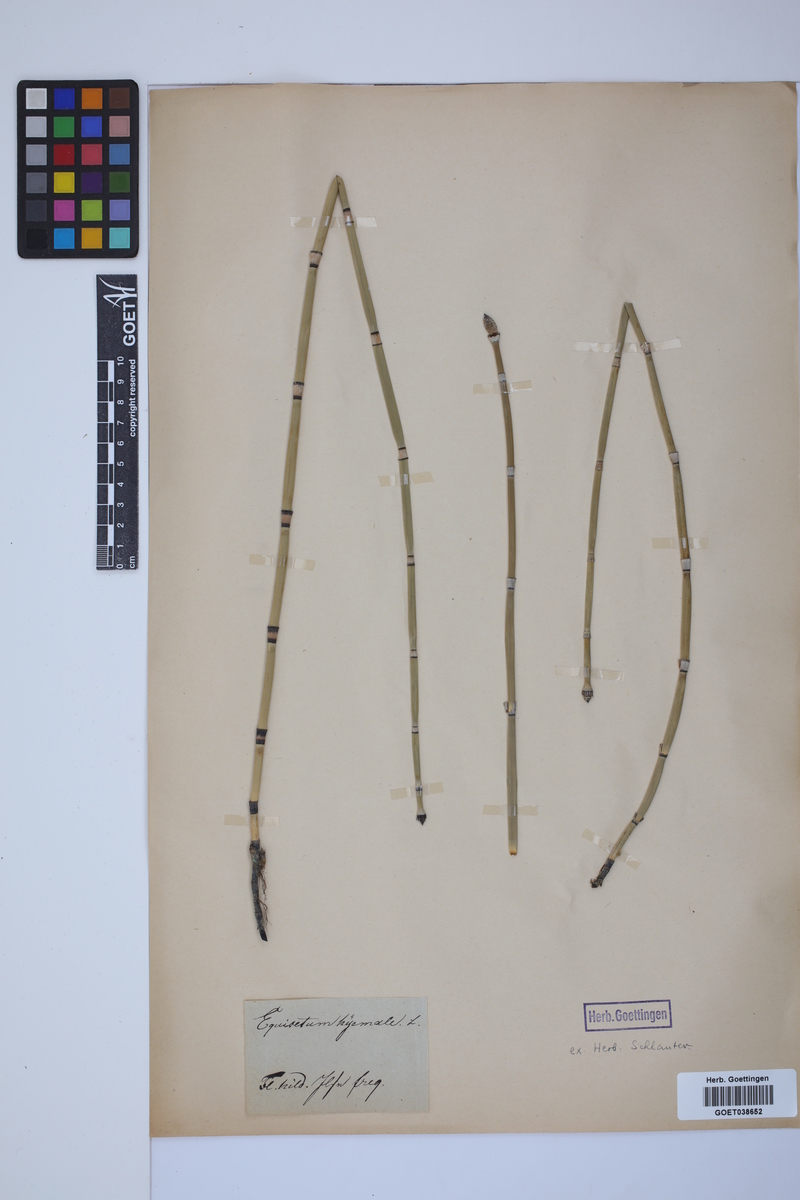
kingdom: Plantae
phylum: Tracheophyta
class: Polypodiopsida
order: Equisetales
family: Equisetaceae
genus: Equisetum
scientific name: Equisetum hyemale
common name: Rough horsetail
